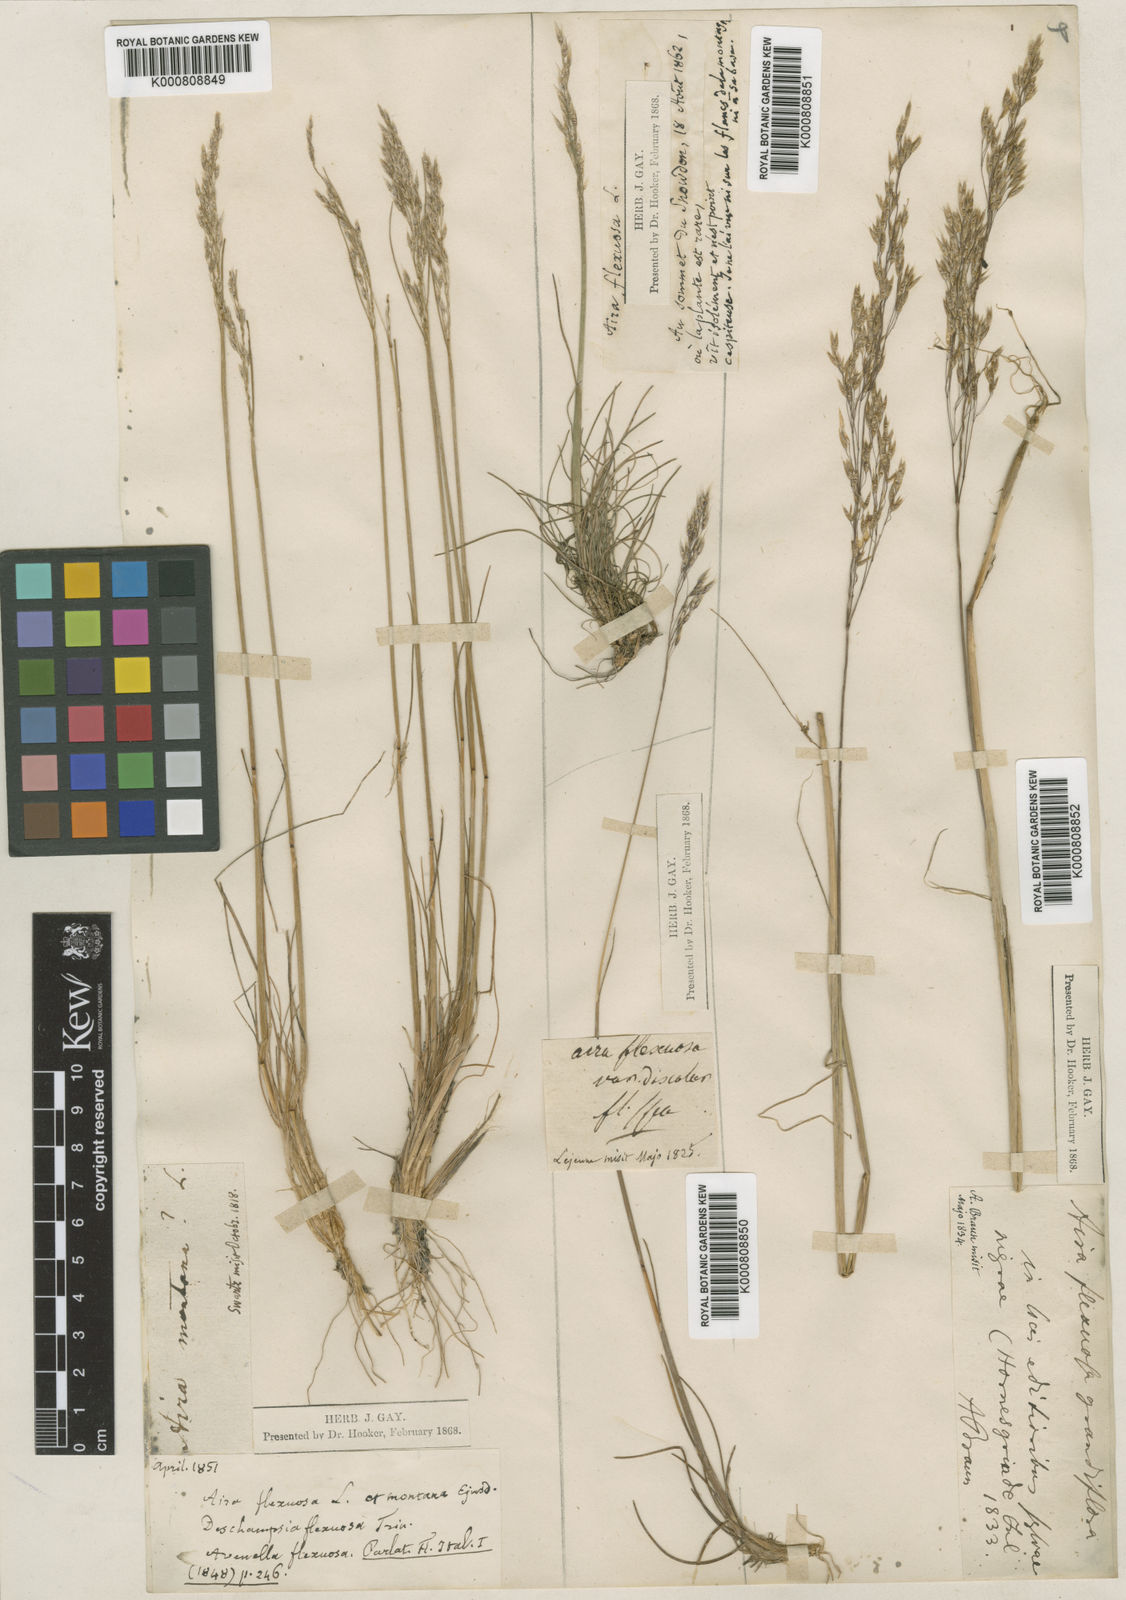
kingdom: Plantae
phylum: Tracheophyta
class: Liliopsida
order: Poales
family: Poaceae
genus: Avenella
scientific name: Avenella flexuosa
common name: Wavy hairgrass
